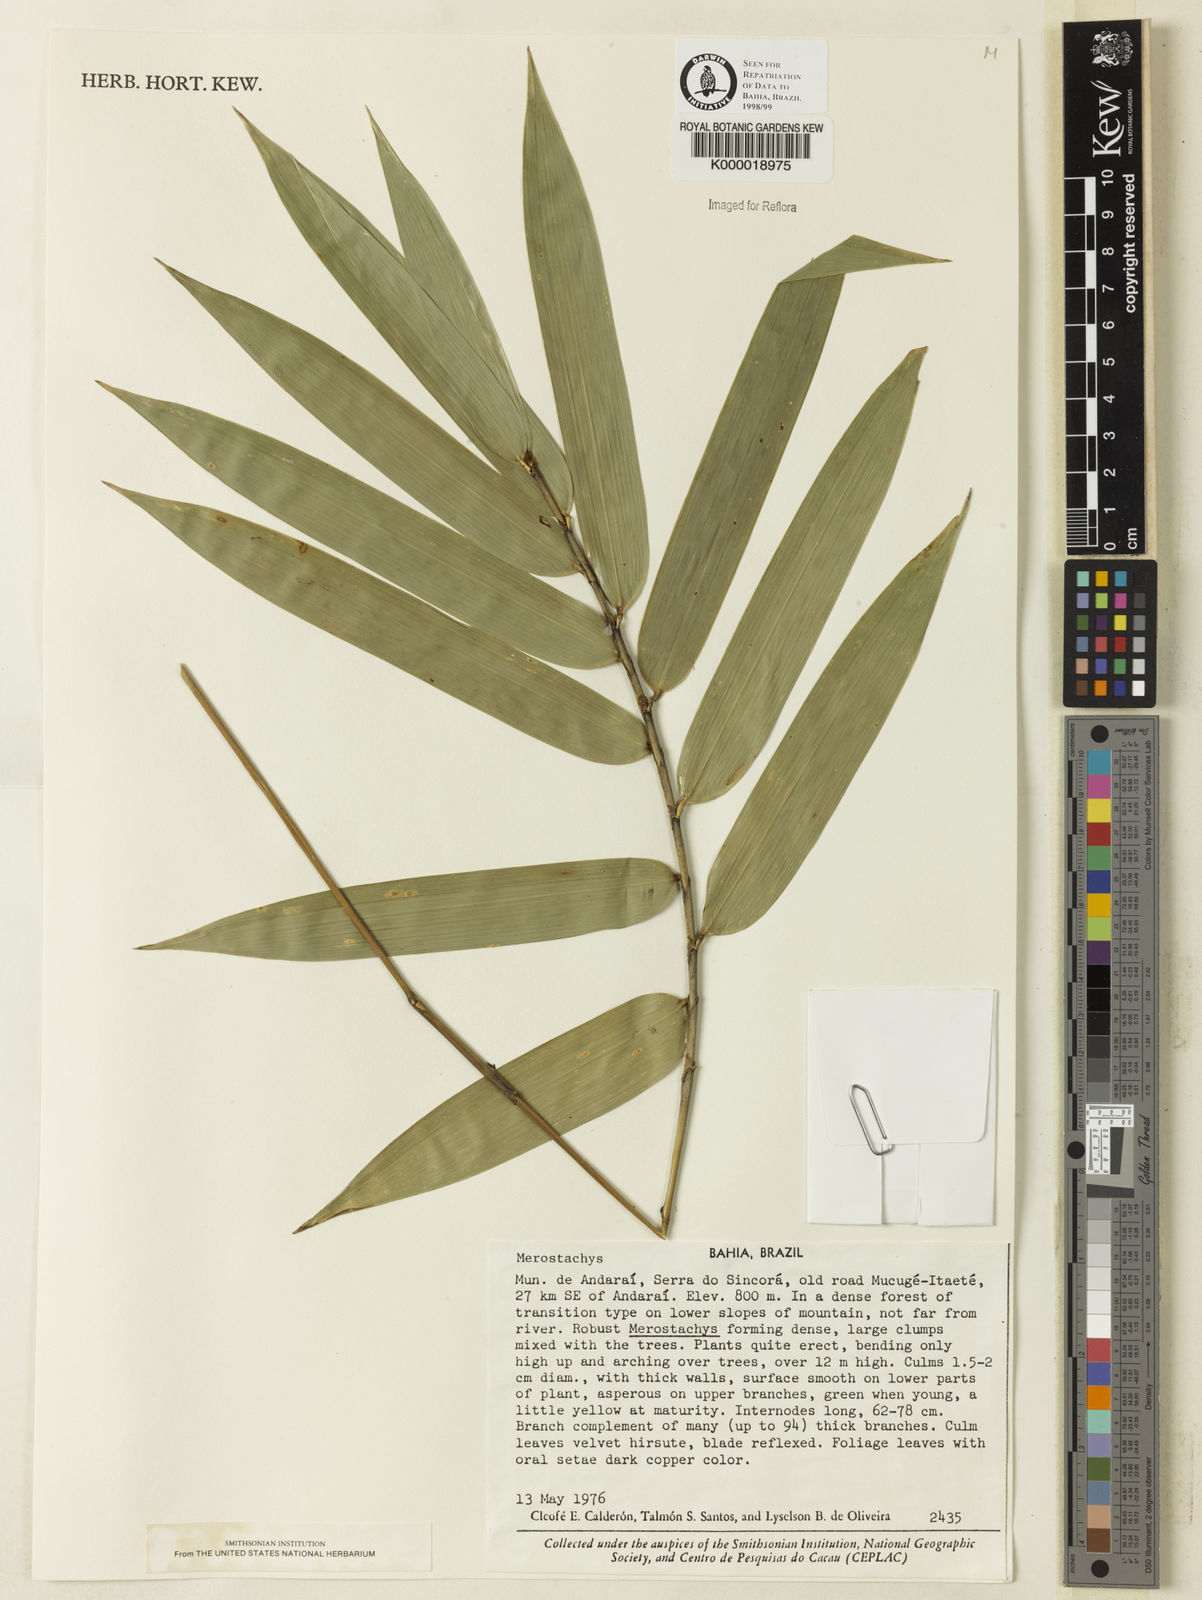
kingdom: Plantae
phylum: Tracheophyta
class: Liliopsida
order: Poales
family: Poaceae
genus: Merostachys
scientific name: Merostachys
